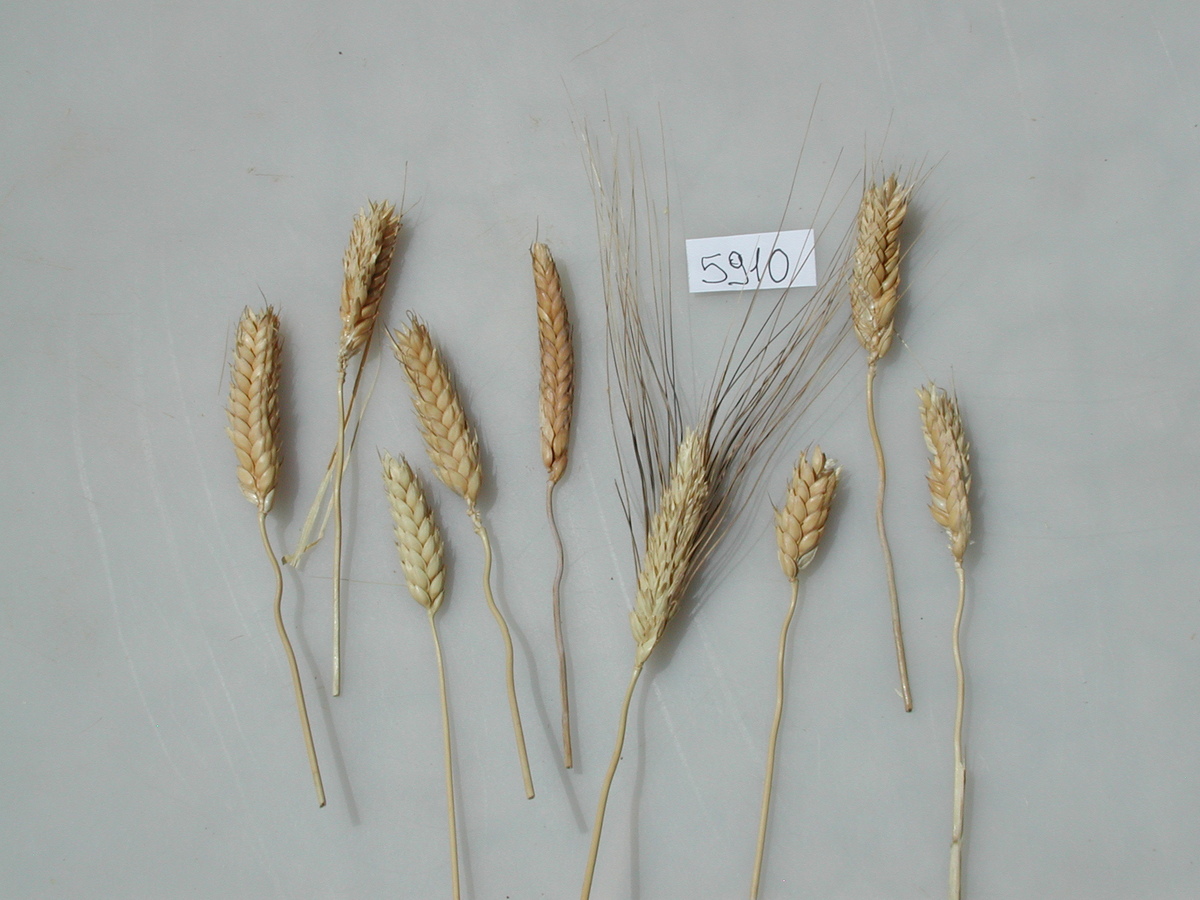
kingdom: Plantae
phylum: Tracheophyta
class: Liliopsida
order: Poales
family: Poaceae
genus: Triticum
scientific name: Triticum turgidum
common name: Wheat
